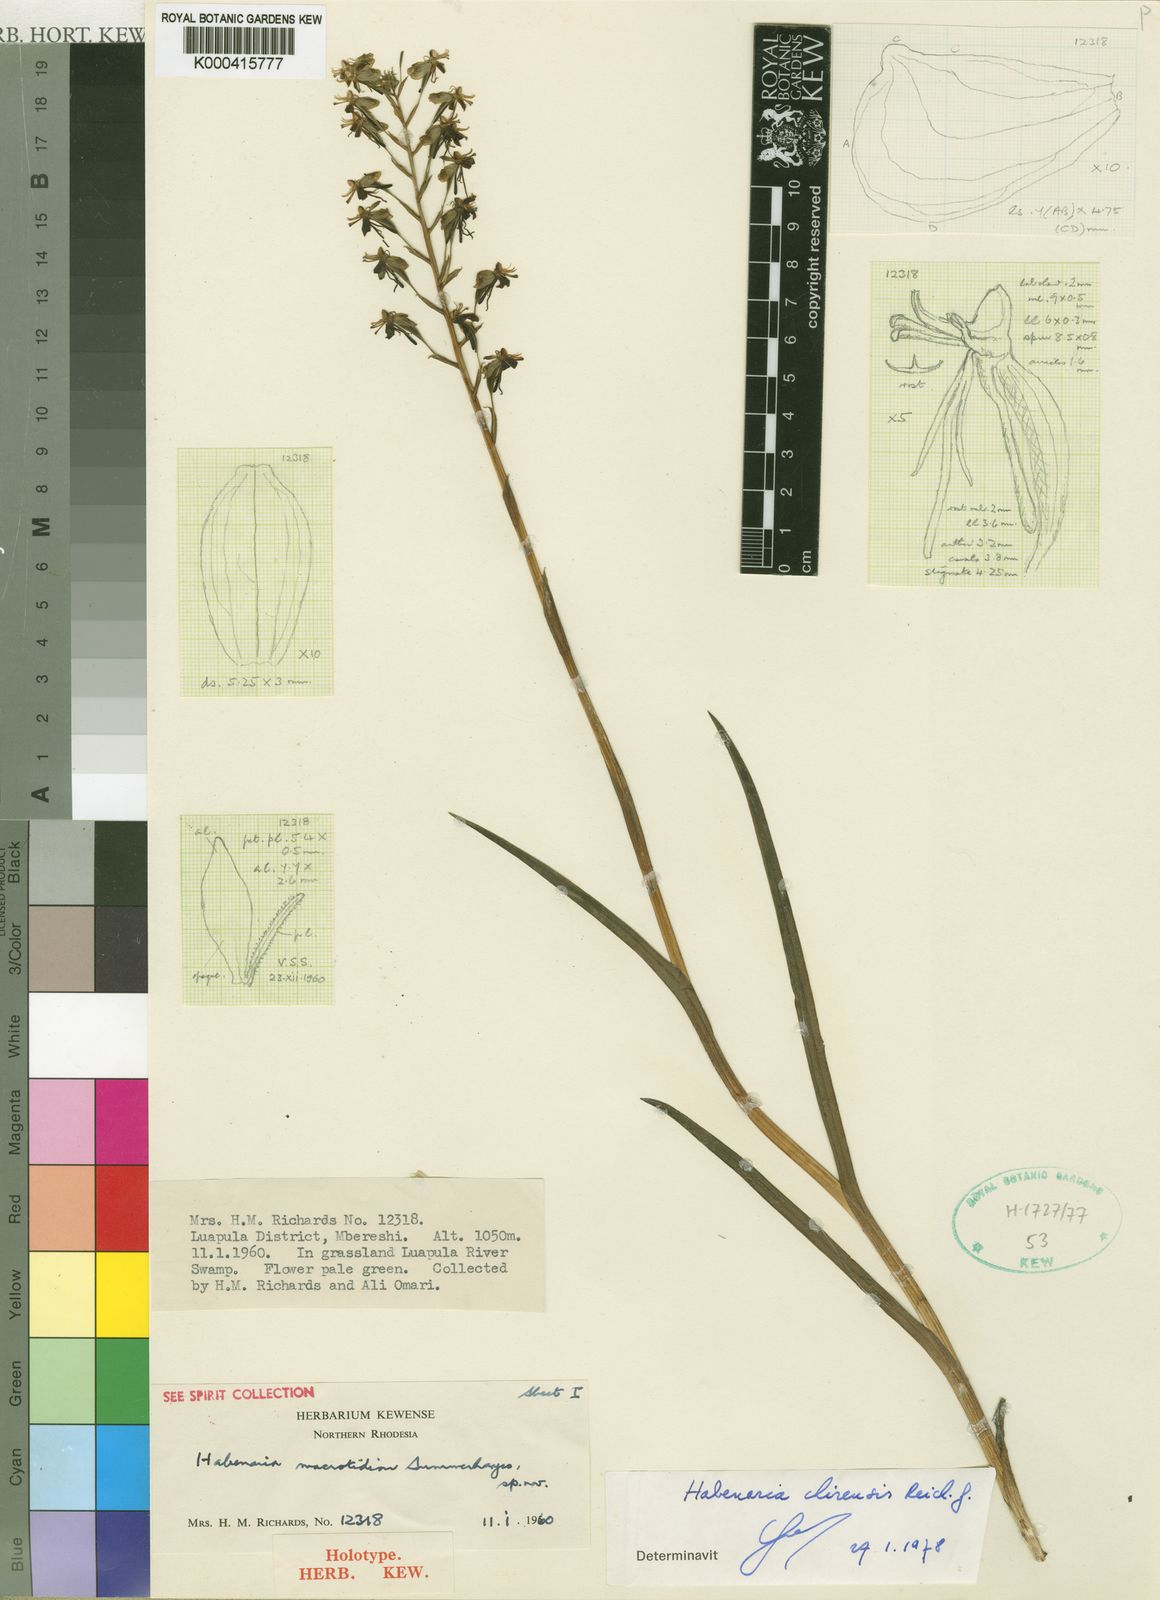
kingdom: Plantae
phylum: Tracheophyta
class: Liliopsida
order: Asparagales
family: Orchidaceae
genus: Habenaria
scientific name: Habenaria macrotidion
